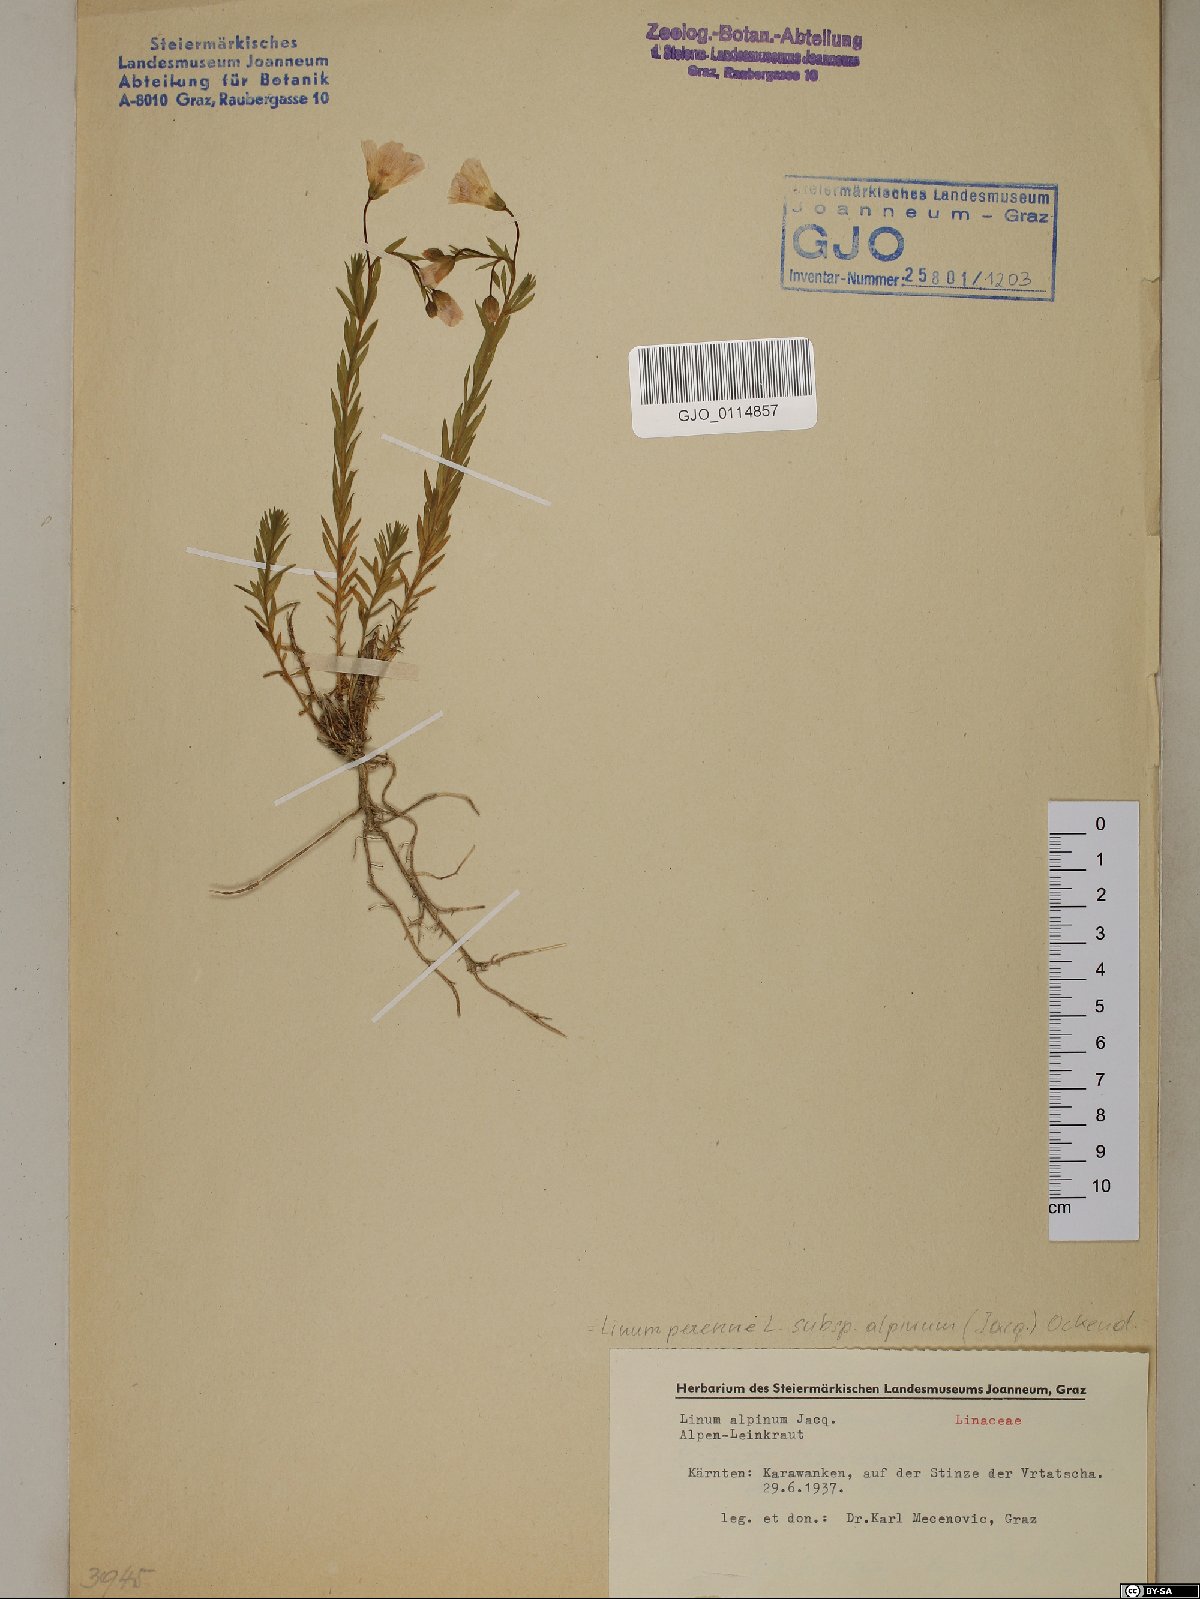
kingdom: Plantae
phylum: Tracheophyta
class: Magnoliopsida
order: Malpighiales
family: Linaceae
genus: Linum
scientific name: Linum alpinum
